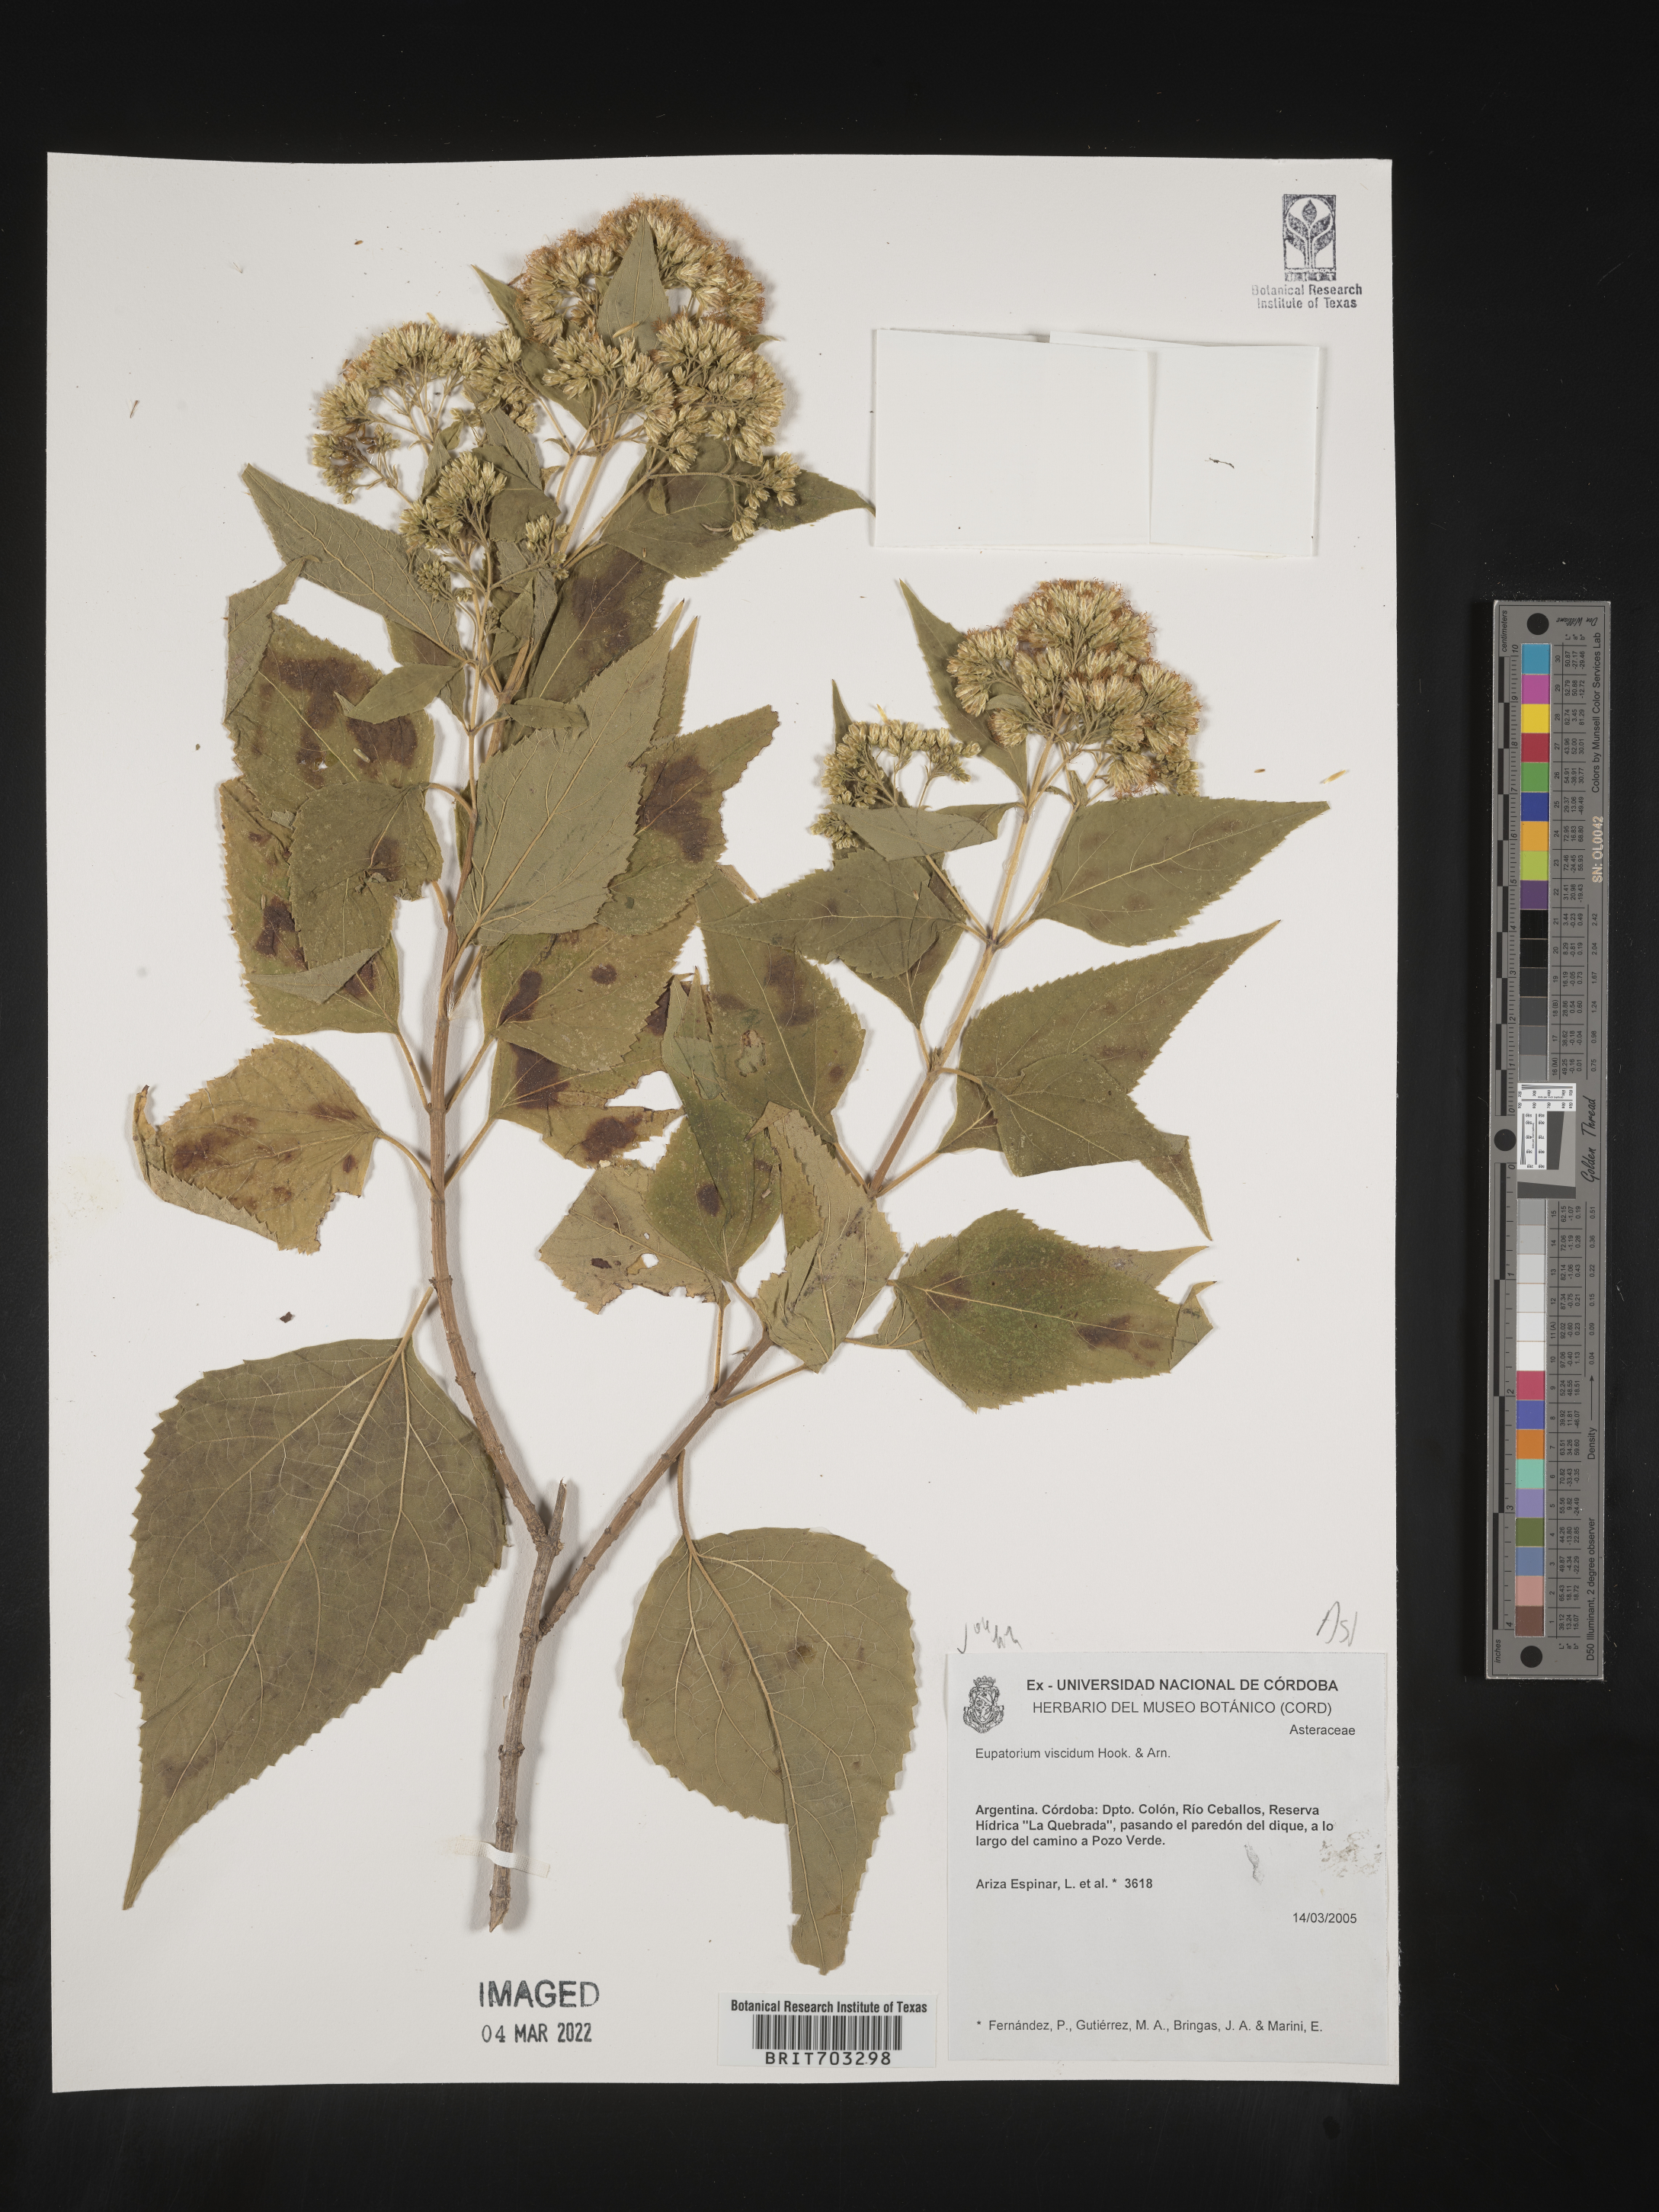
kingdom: Plantae
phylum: Tracheophyta
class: Magnoliopsida
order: Asterales
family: Asteraceae
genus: Eupatorium
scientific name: Eupatorium
